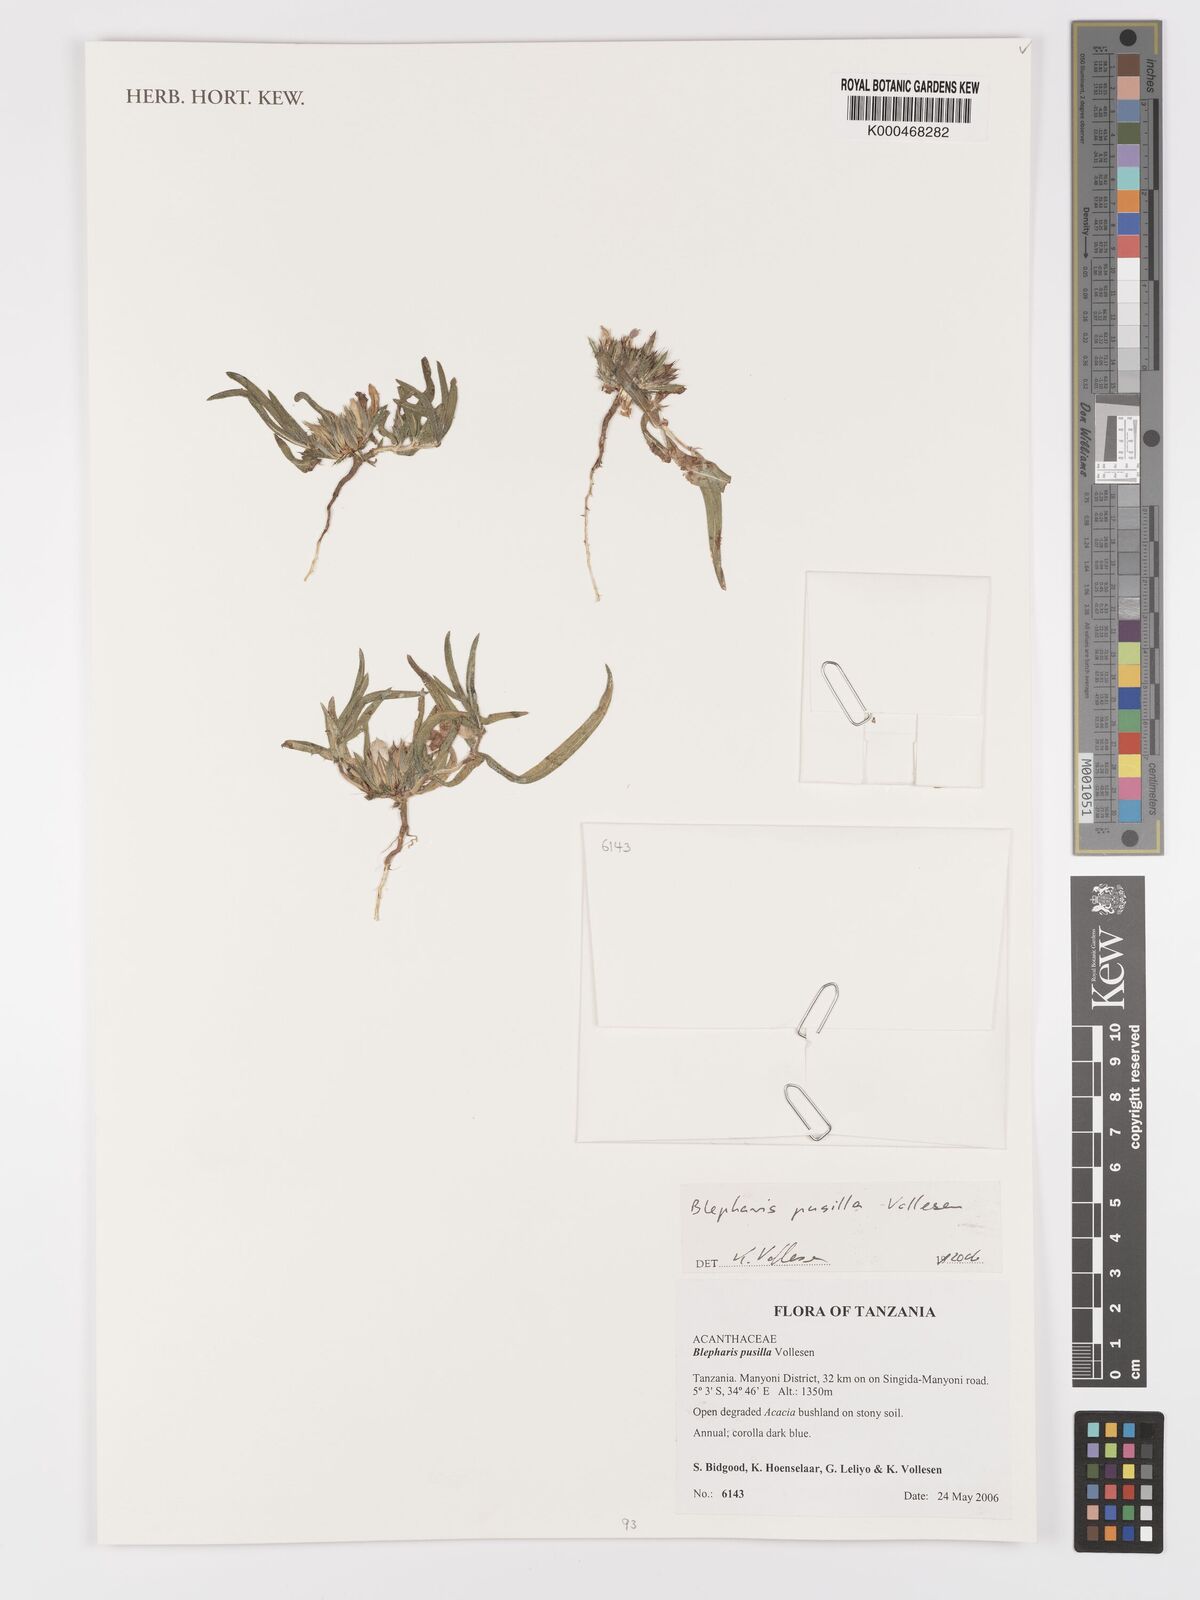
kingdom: Plantae
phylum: Tracheophyta
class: Magnoliopsida
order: Lamiales
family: Acanthaceae
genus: Blepharis
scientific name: Blepharis pusilla
